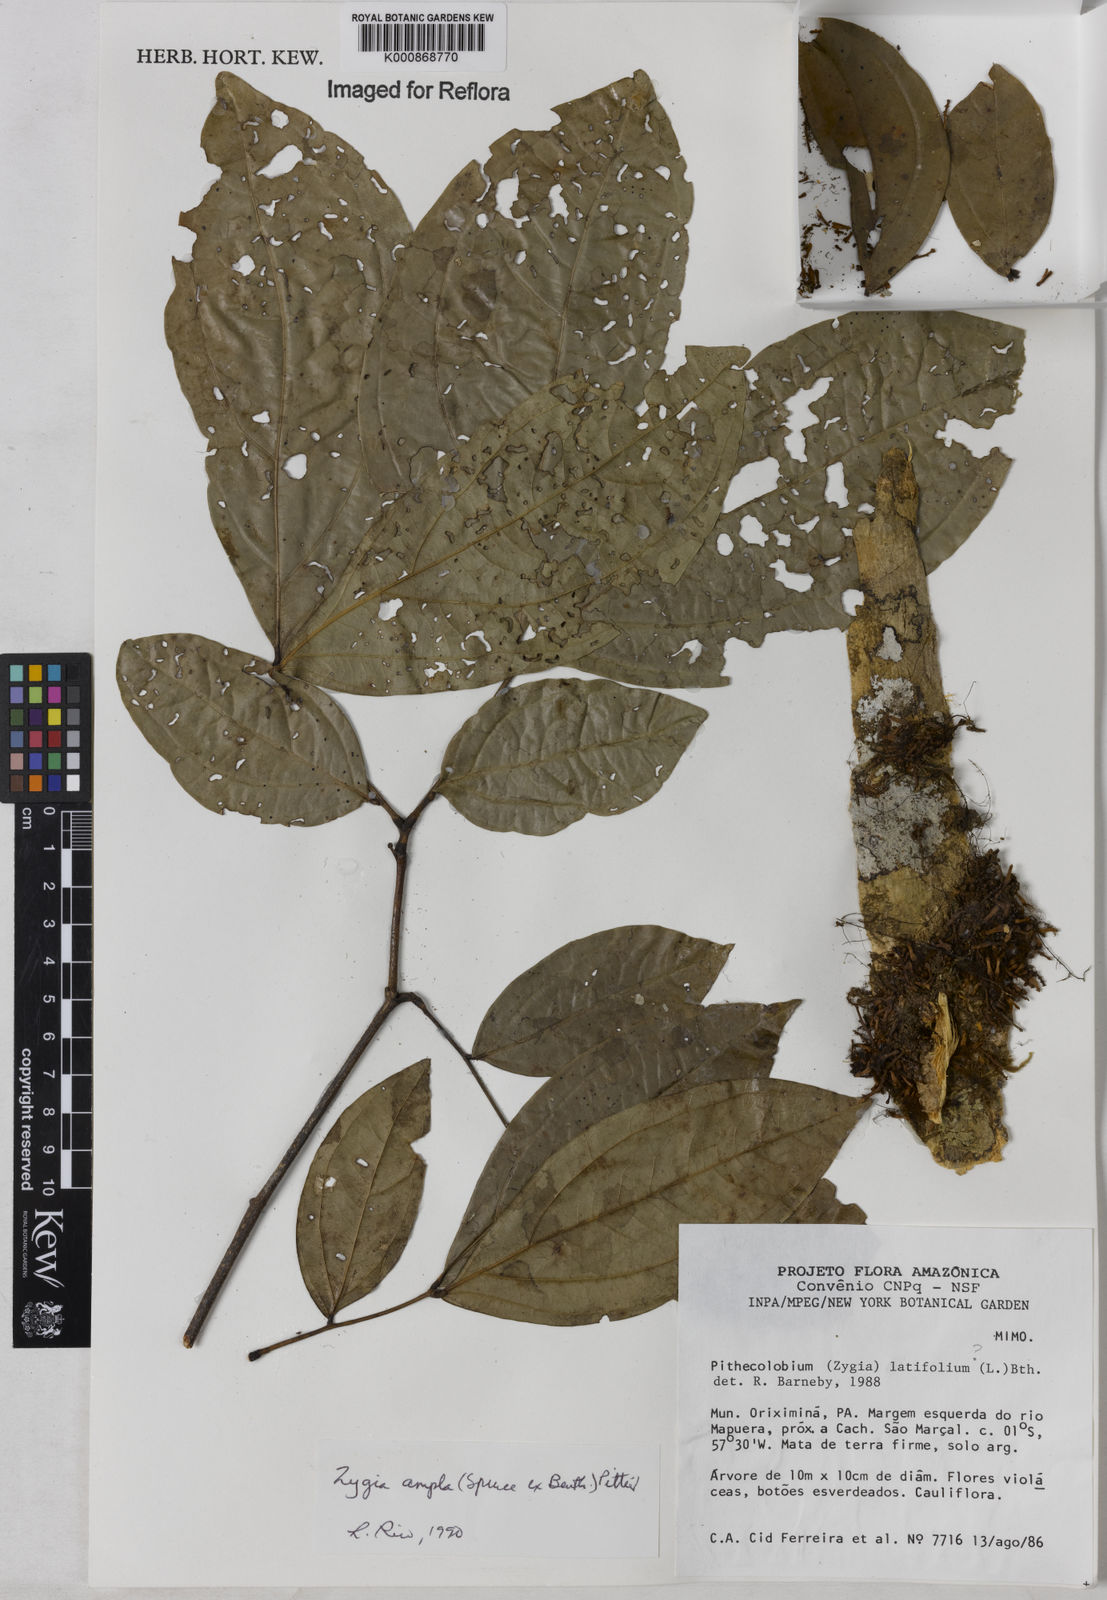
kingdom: Plantae
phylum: Tracheophyta
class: Magnoliopsida
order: Fabales
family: Fabaceae
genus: Zygia
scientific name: Zygia ampla
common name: Jarendeua de sapo
